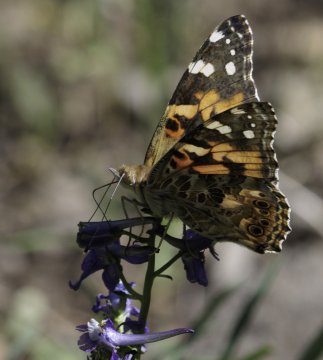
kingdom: Animalia
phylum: Arthropoda
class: Insecta
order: Lepidoptera
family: Nymphalidae
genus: Vanessa
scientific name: Vanessa cardui
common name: Painted Lady
